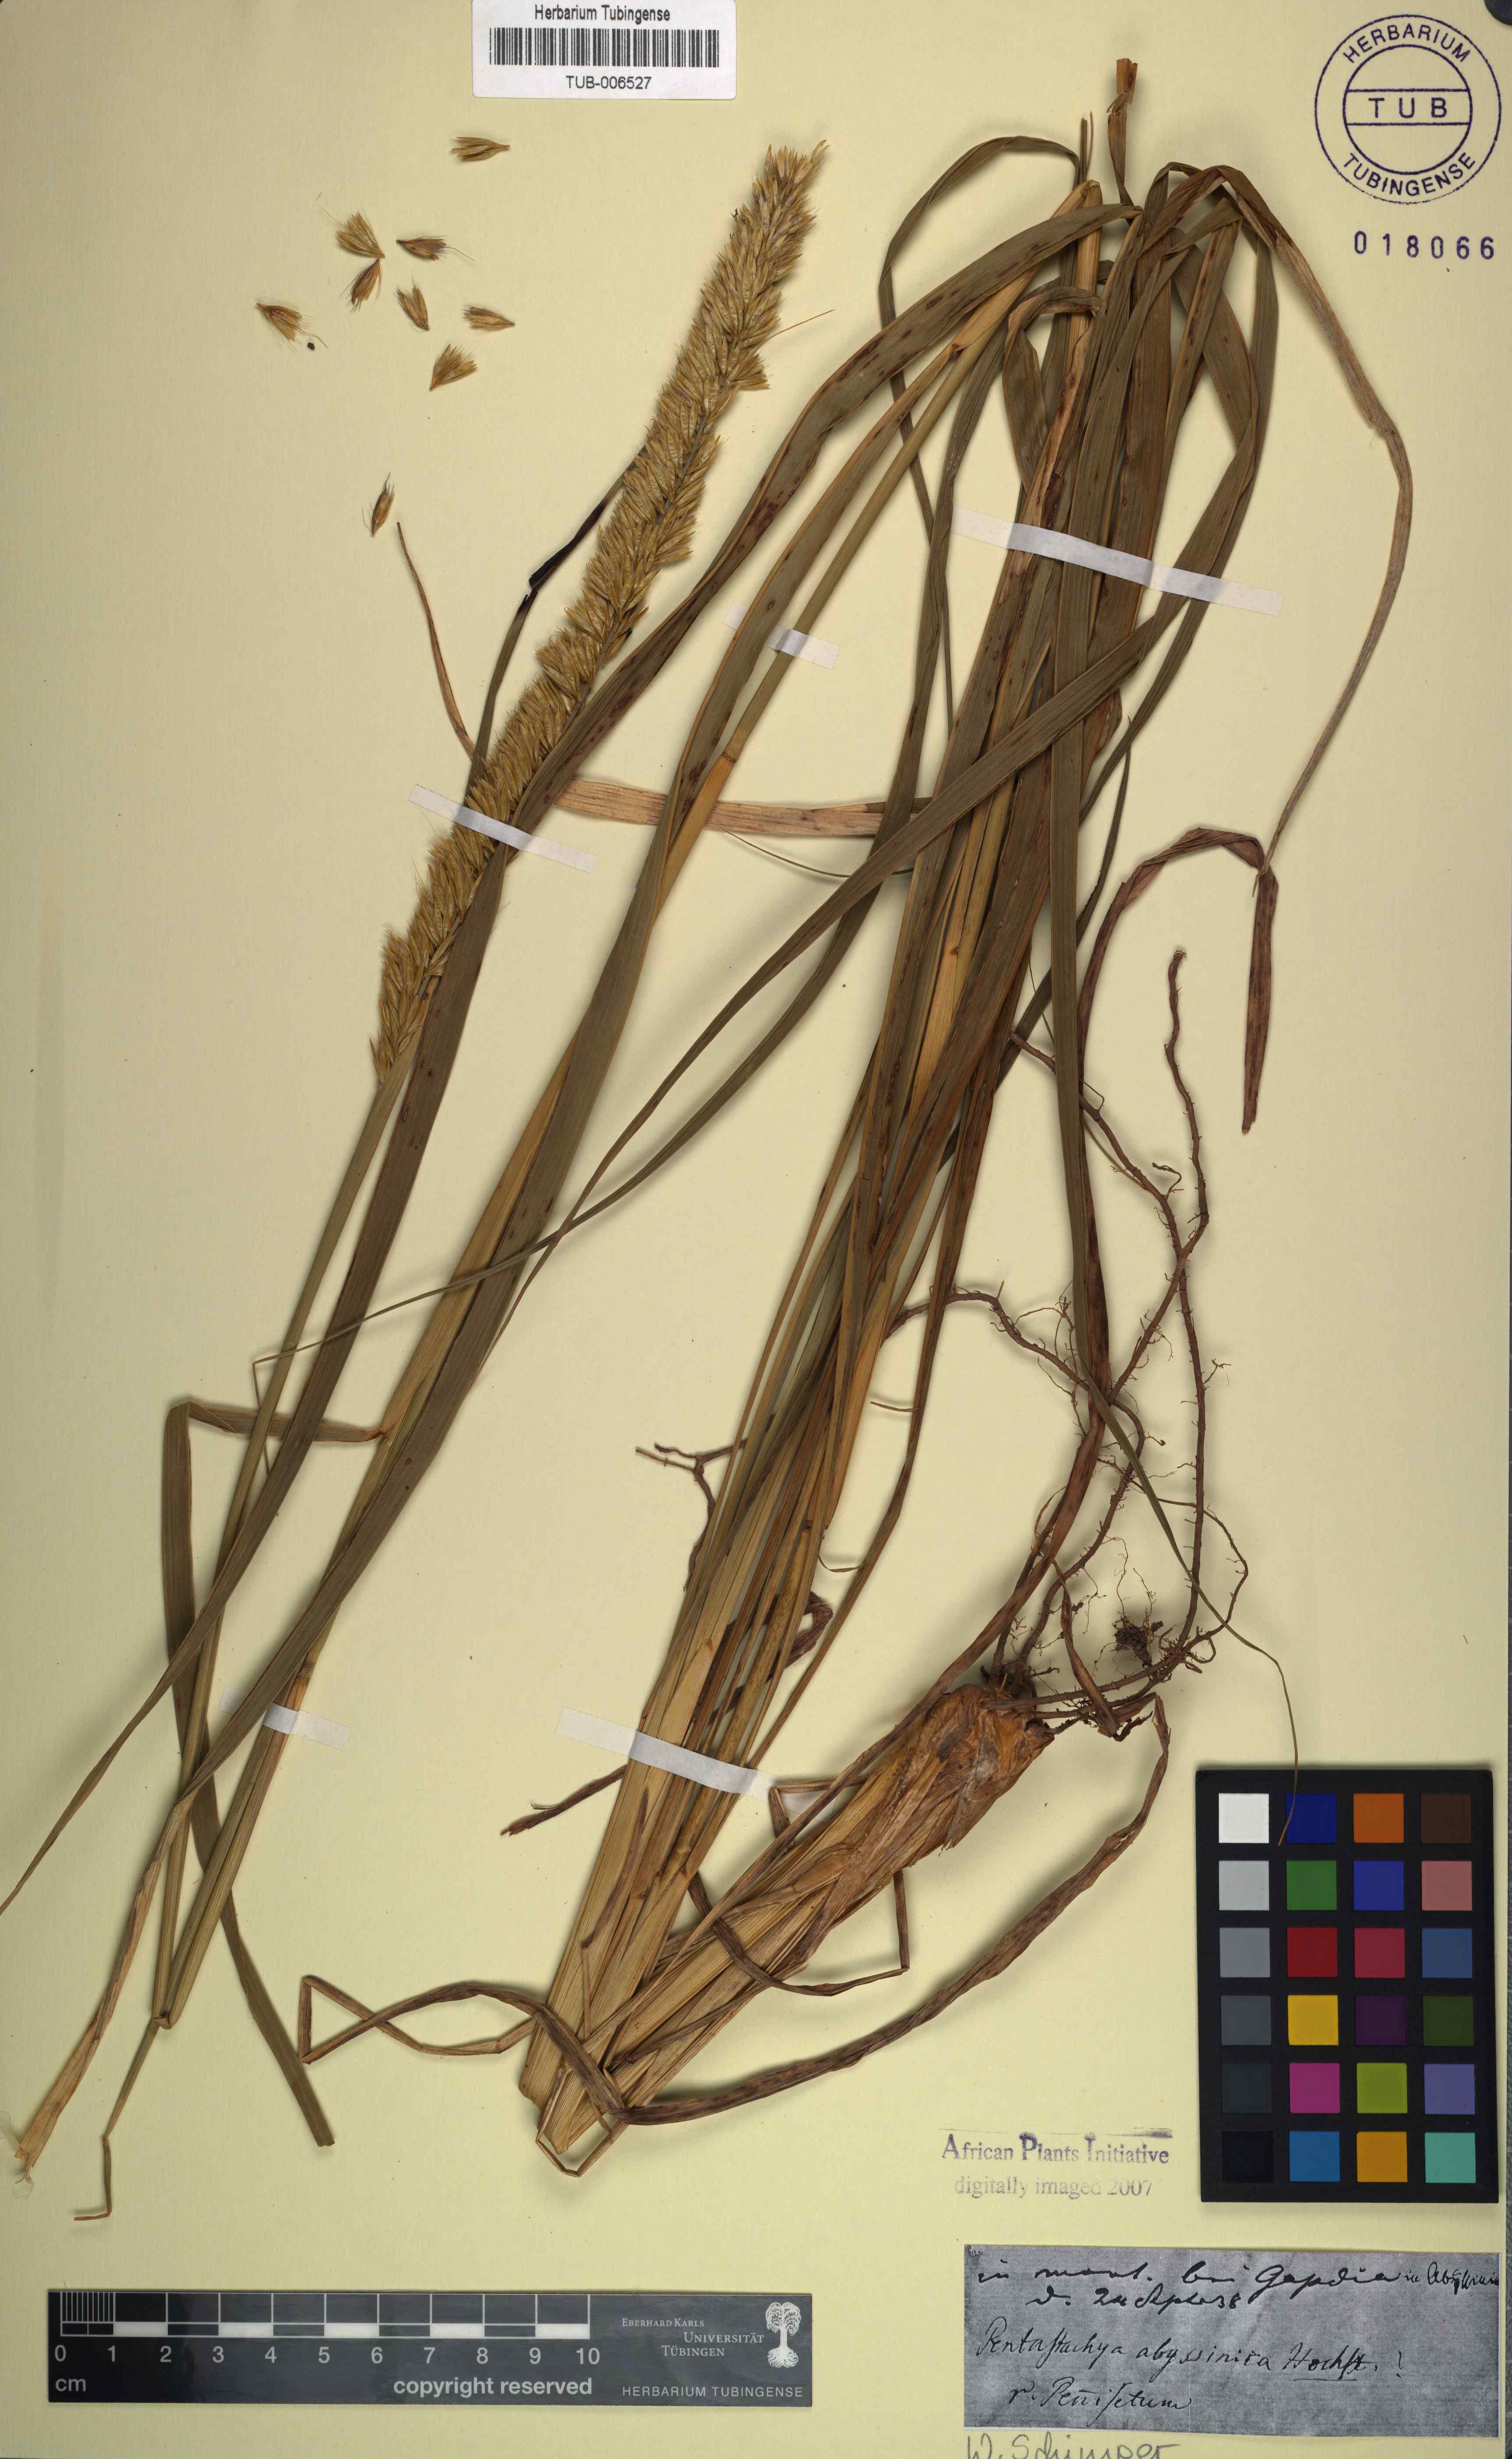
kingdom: Plantae
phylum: Tracheophyta
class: Liliopsida
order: Poales
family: Poaceae
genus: Cenchrus
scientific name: Cenchrus squamulatus
